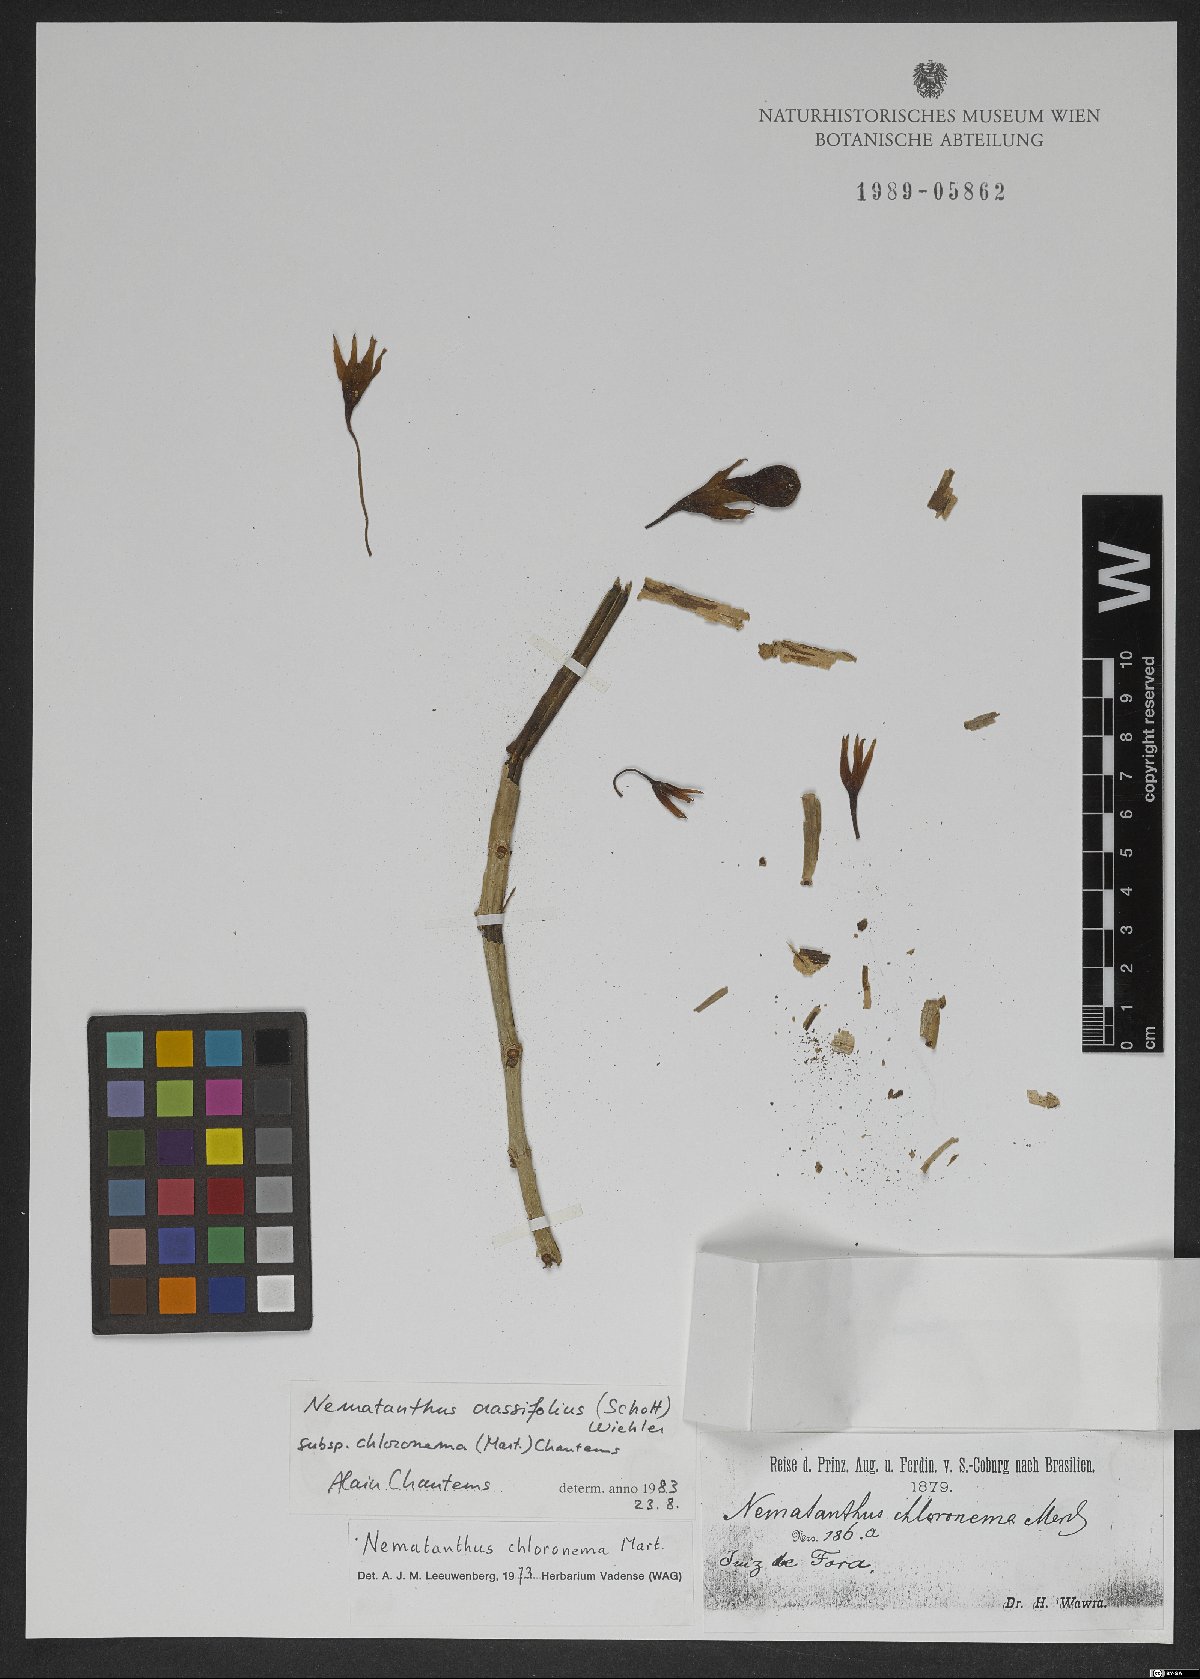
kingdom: Plantae
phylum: Tracheophyta
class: Magnoliopsida
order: Lamiales
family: Gesneriaceae
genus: Nematanthus
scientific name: Nematanthus crassifolius
